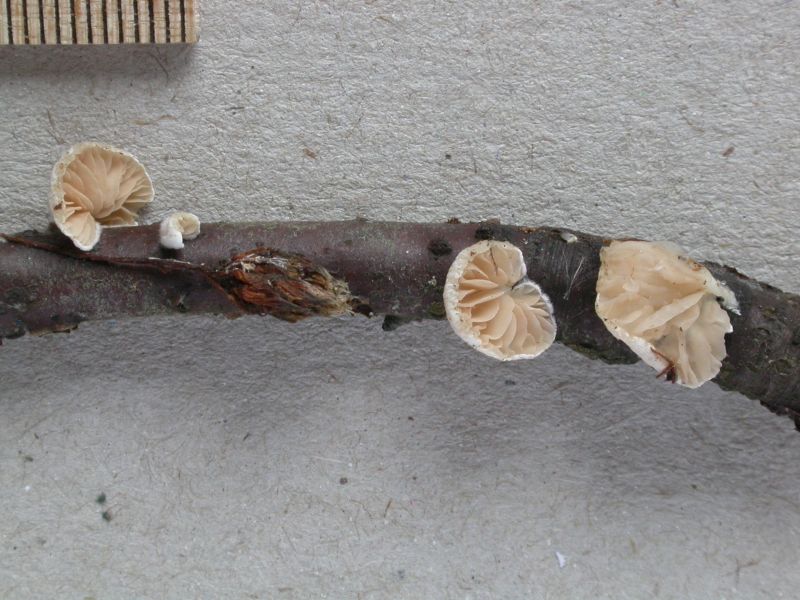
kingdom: Fungi
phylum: Basidiomycota
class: Agaricomycetes
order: Agaricales
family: Crepidotaceae
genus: Crepidotus
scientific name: Crepidotus cesatii
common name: almindelig muslingesvamp
